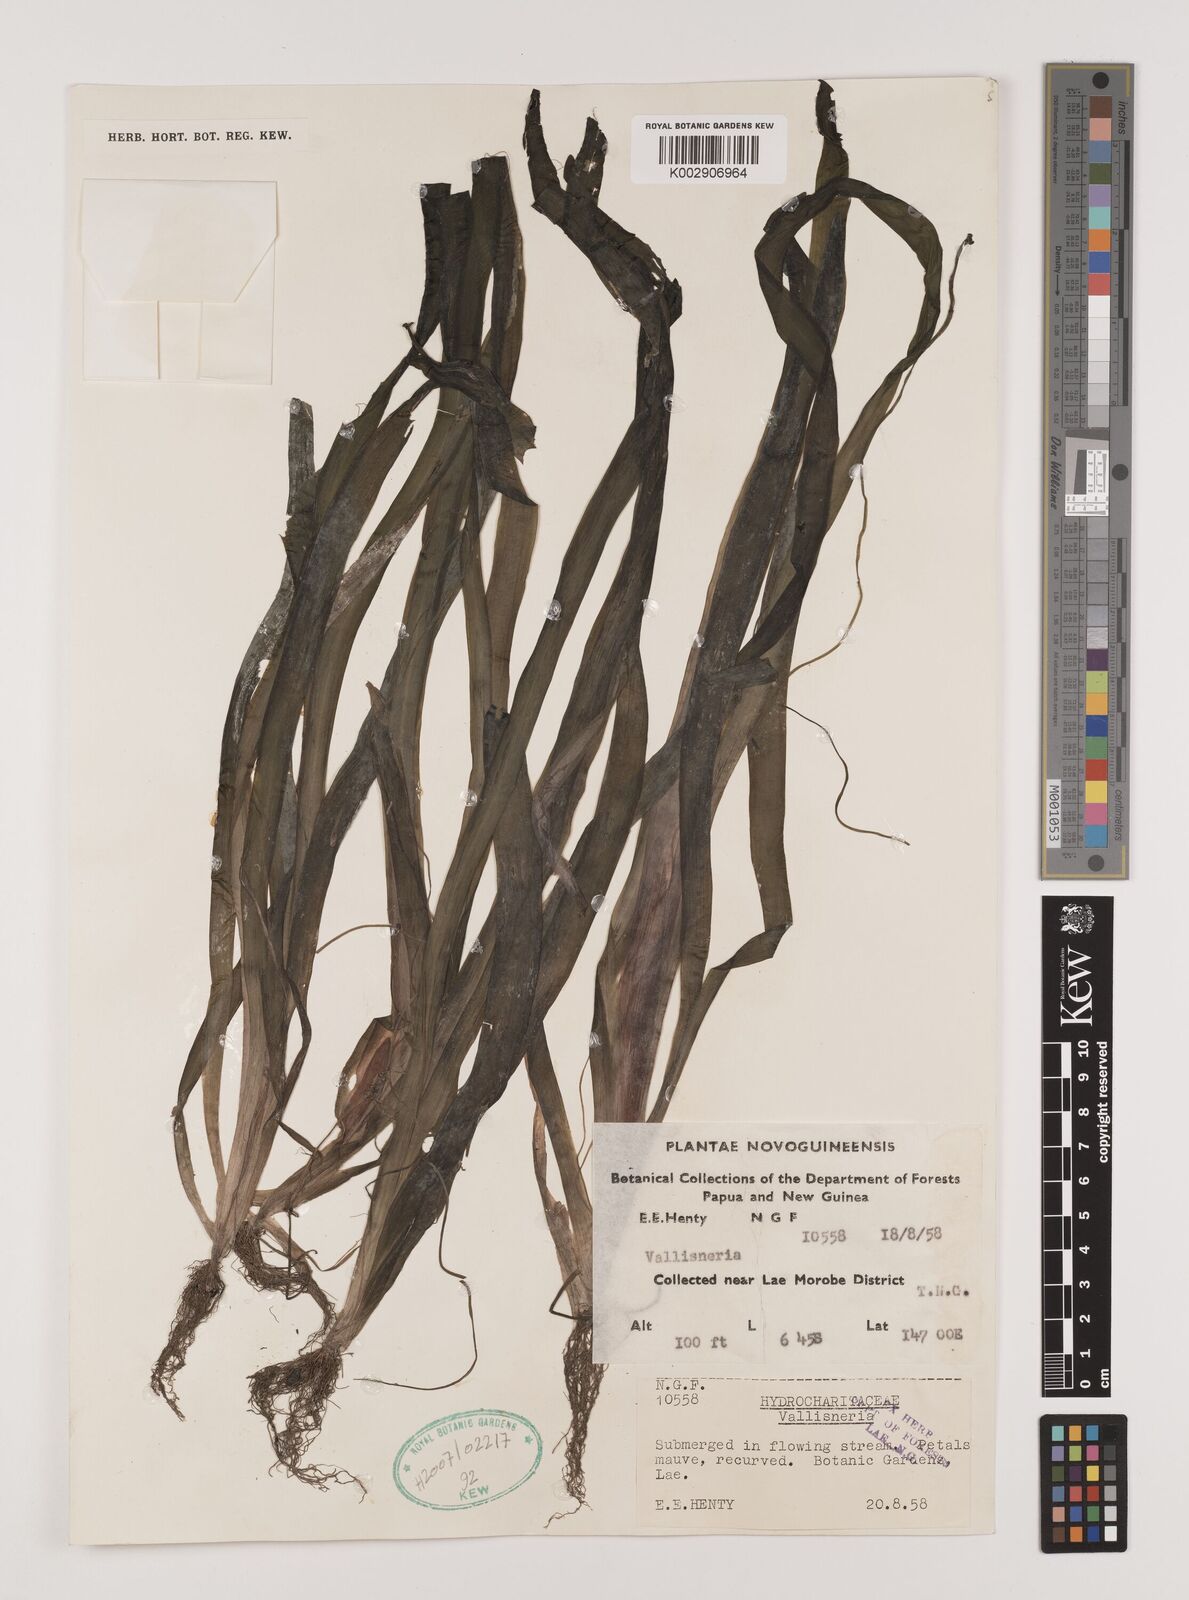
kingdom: Plantae
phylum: Tracheophyta
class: Liliopsida
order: Alismatales
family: Hydrocharitaceae
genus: Vallisneria
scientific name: Vallisneria
